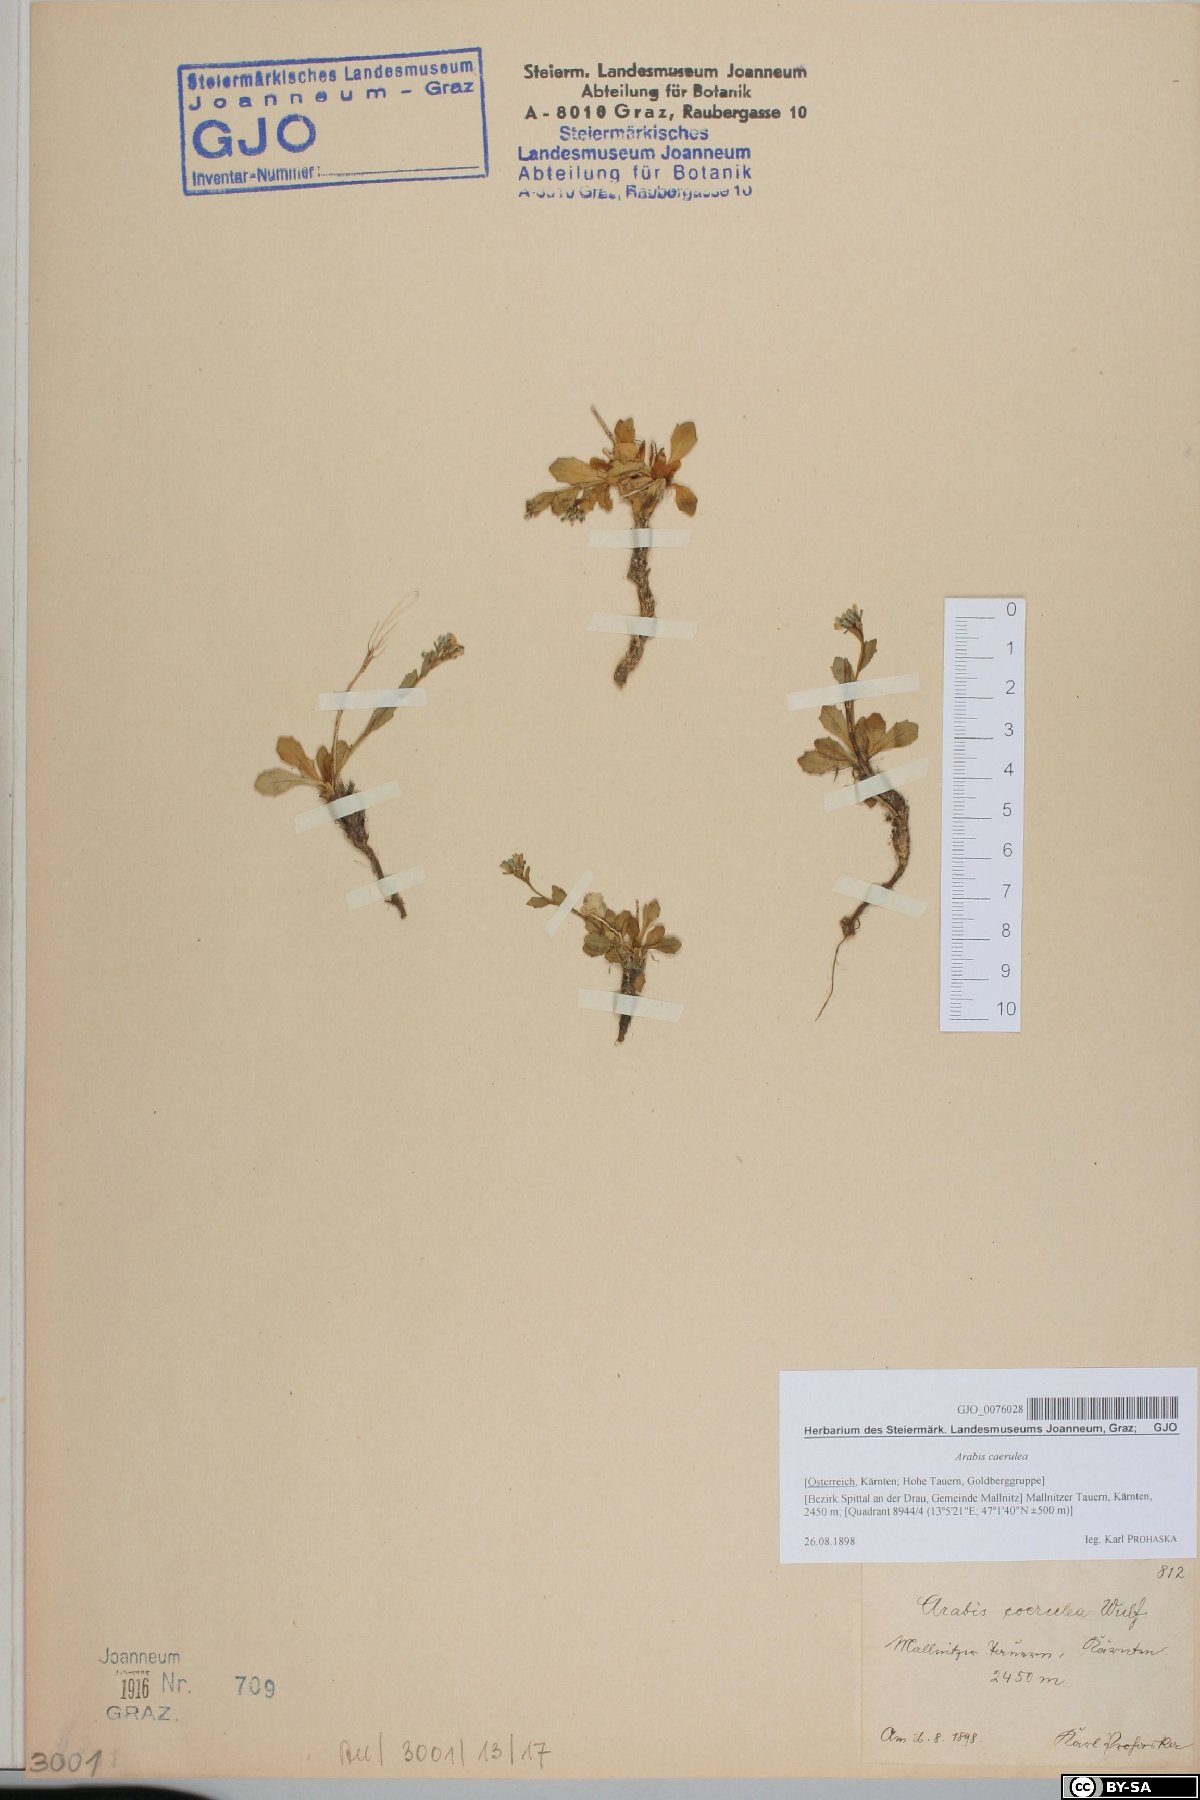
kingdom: Plantae
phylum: Tracheophyta
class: Magnoliopsida
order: Brassicales
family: Brassicaceae
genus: Arabis
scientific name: Arabis caerulea
